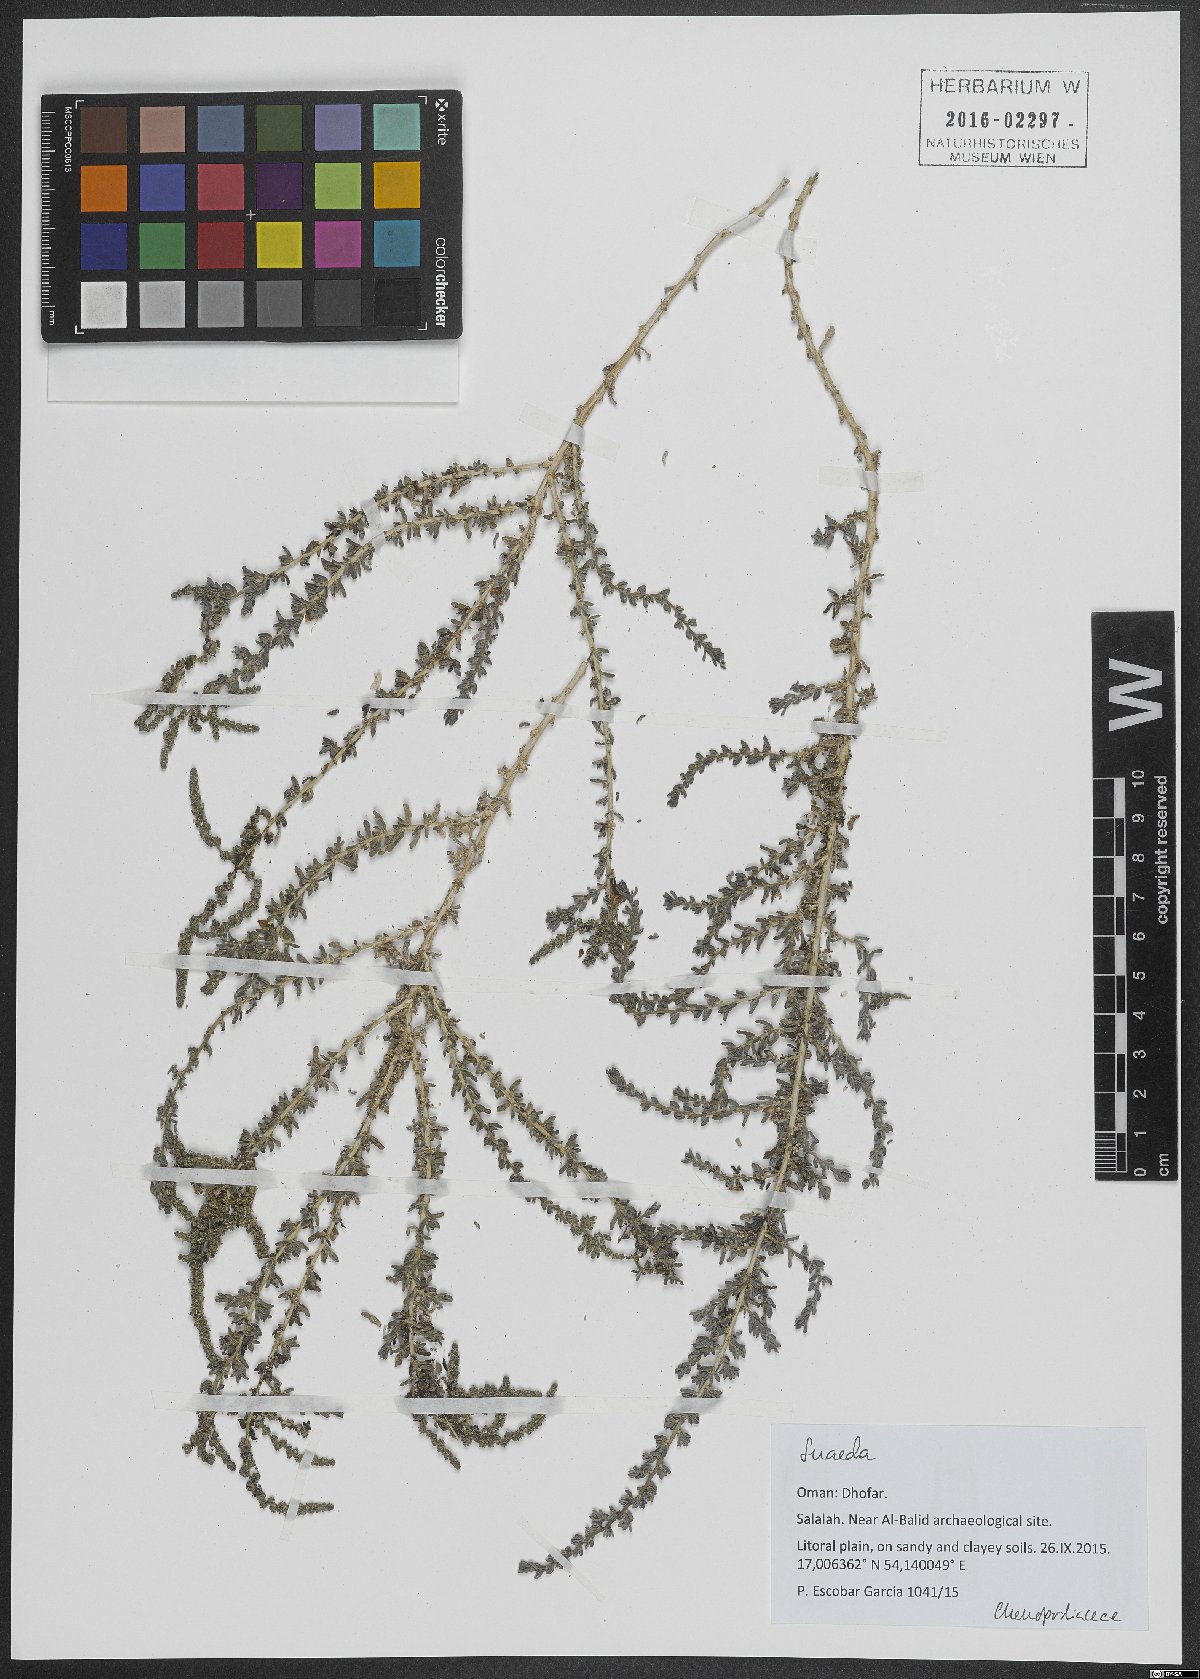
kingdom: Plantae
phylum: Tracheophyta
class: Magnoliopsida
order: Caryophyllales
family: Amaranthaceae
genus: Suaeda
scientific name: Suaeda
